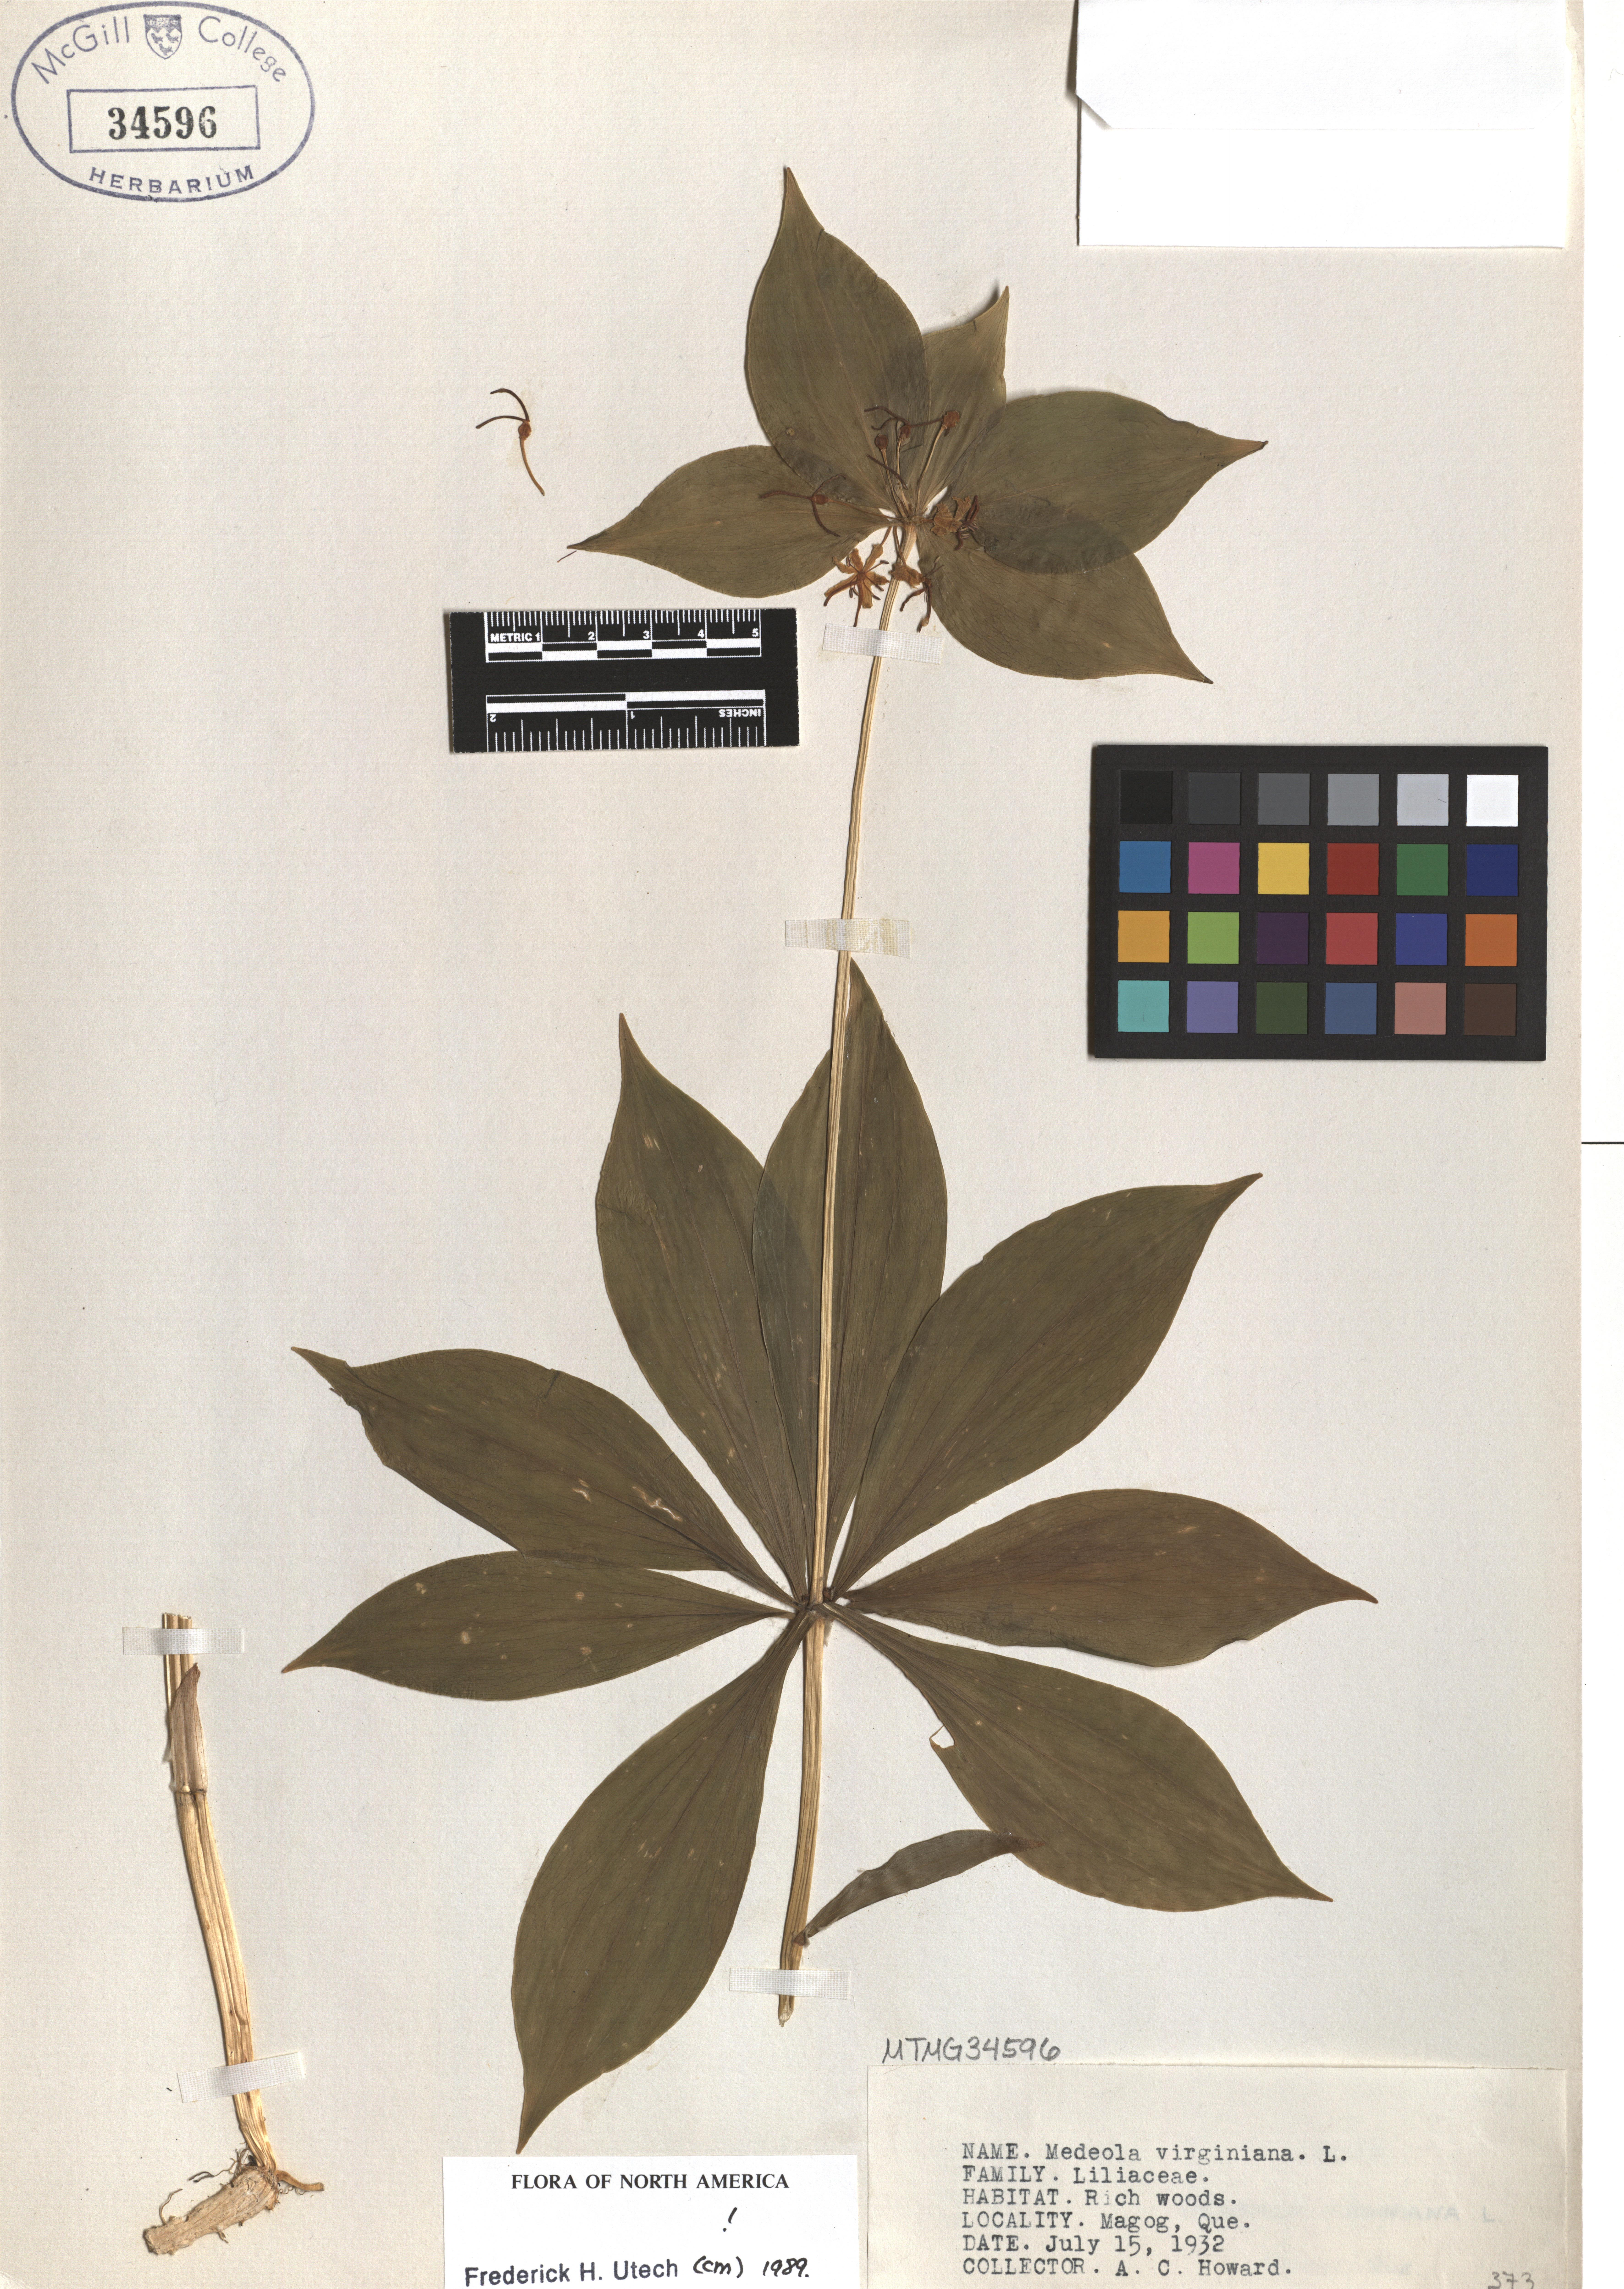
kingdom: Plantae
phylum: Tracheophyta
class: Liliopsida
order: Liliales
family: Liliaceae
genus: Medeola
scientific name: Medeola virginiana
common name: Indian cucumber-root
